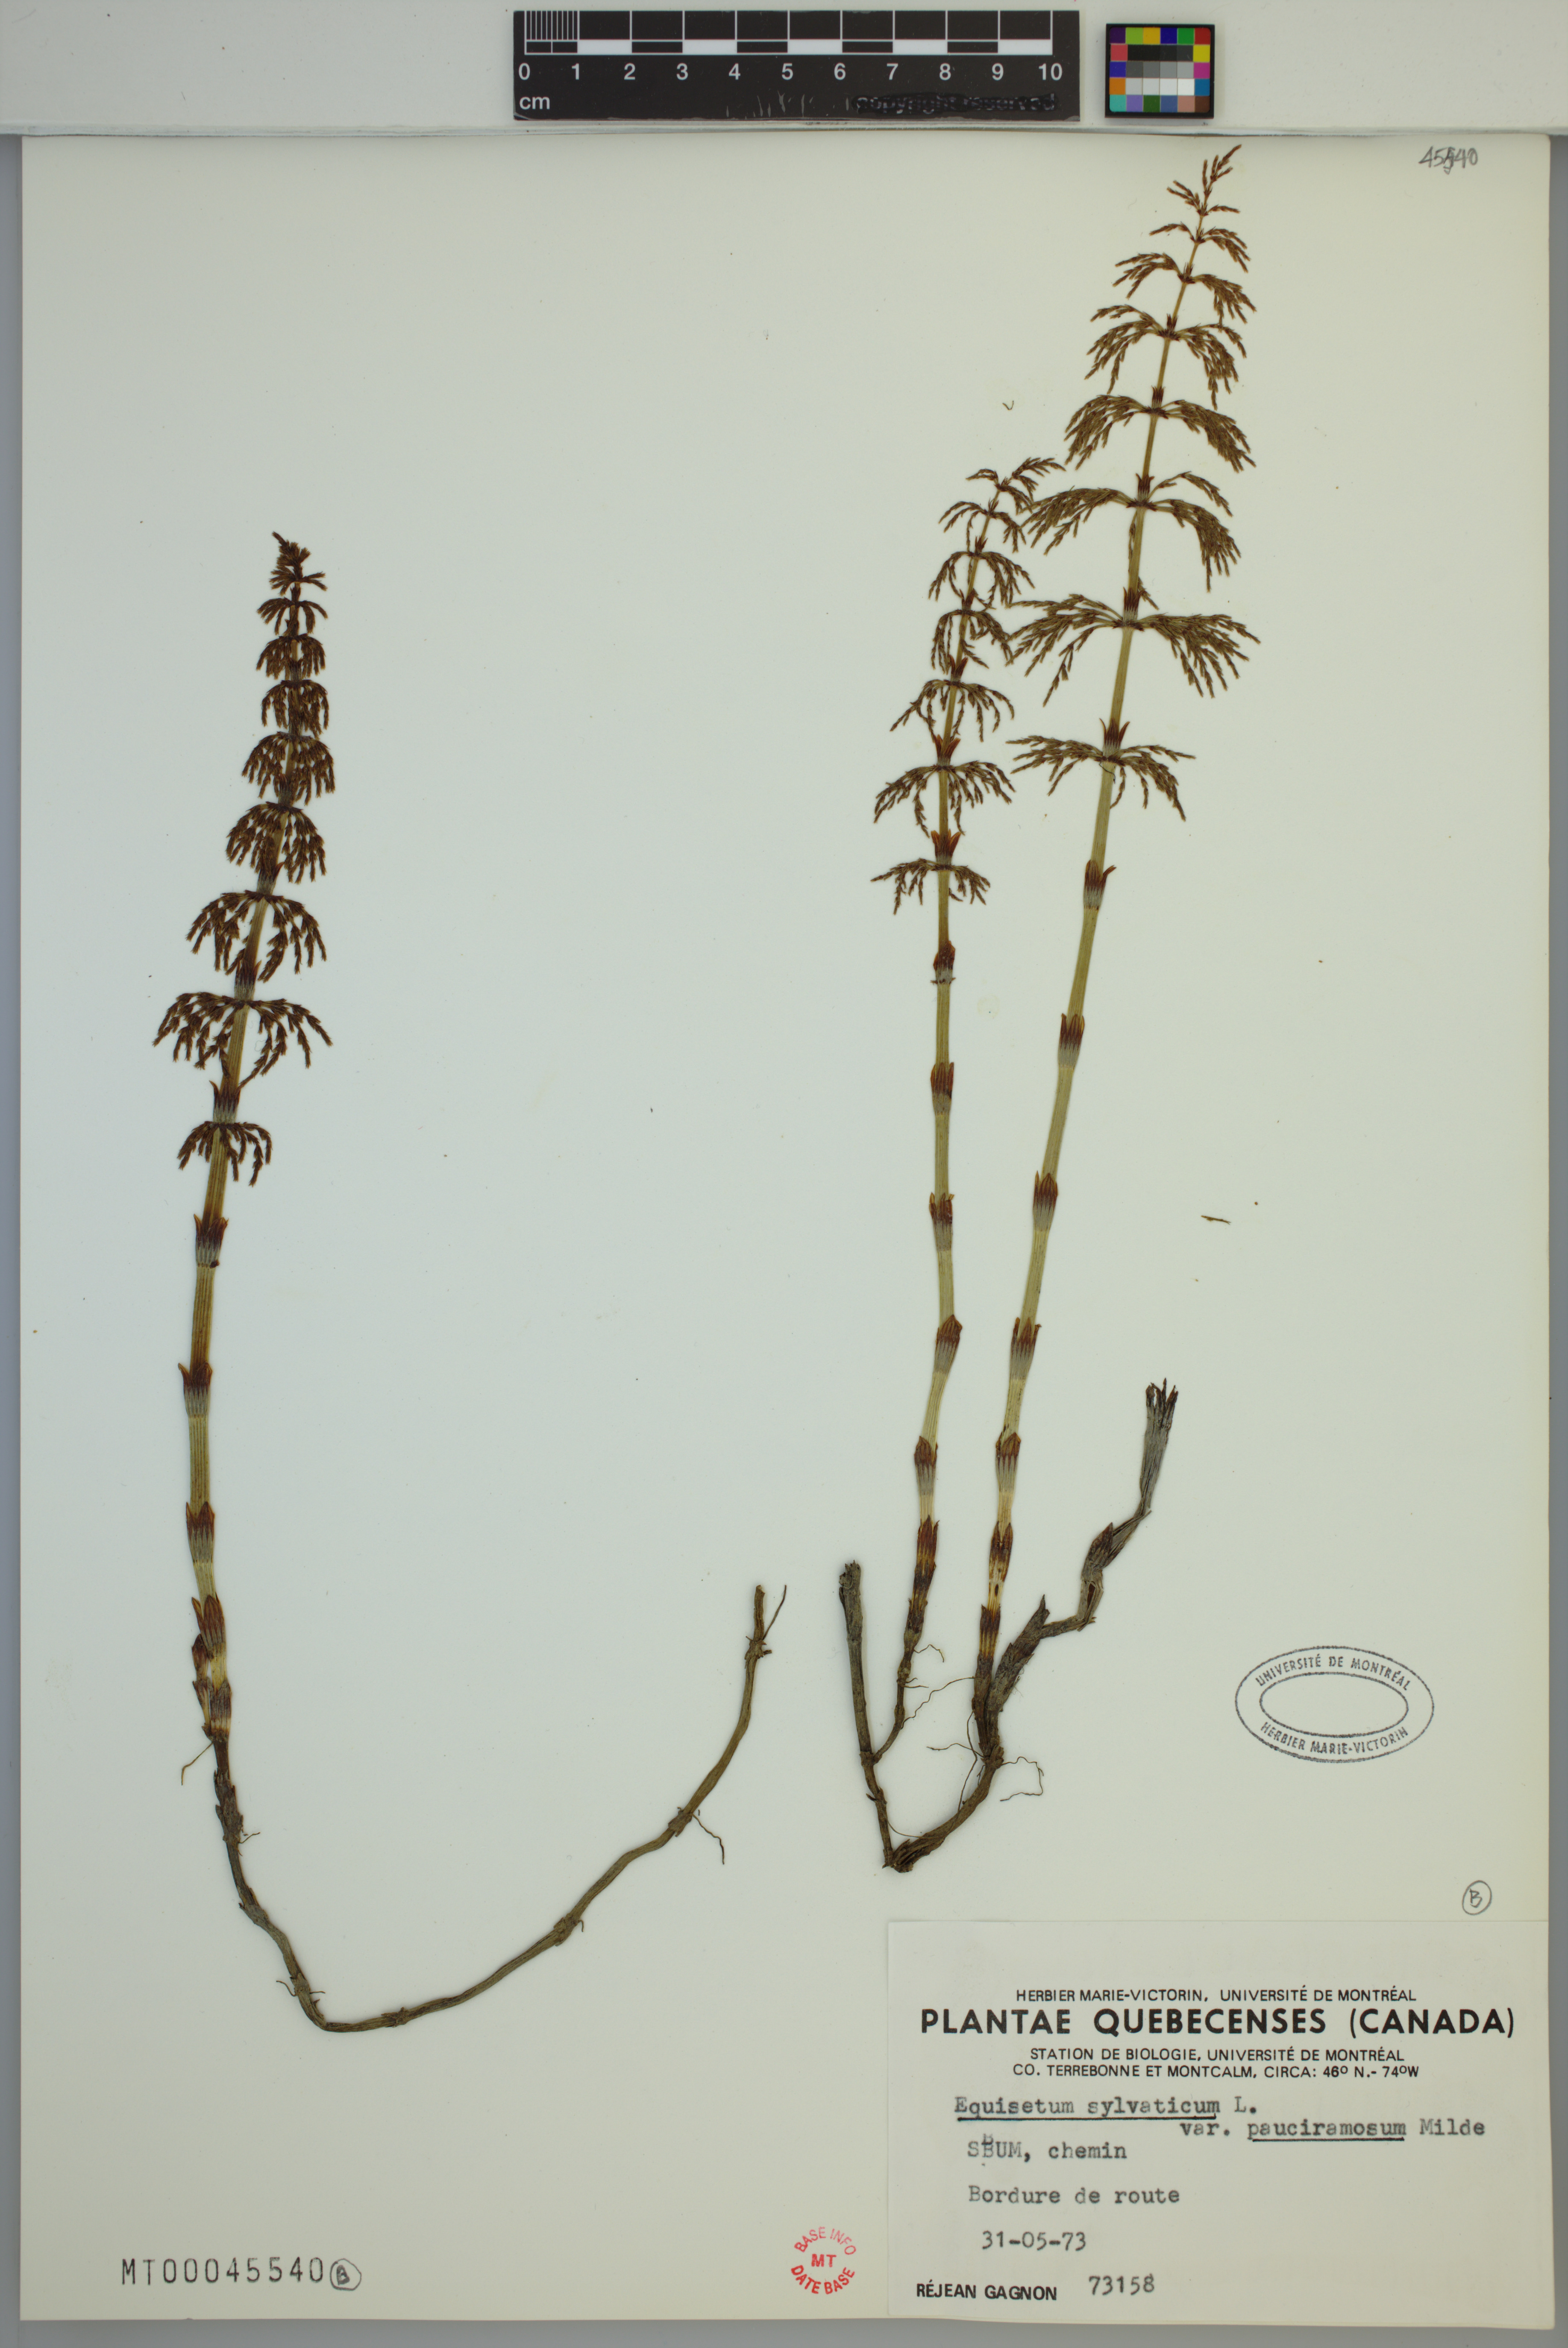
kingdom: Plantae
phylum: Tracheophyta
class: Polypodiopsida
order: Equisetales
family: Equisetaceae
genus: Equisetum
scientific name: Equisetum sylvaticum
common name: Wood horsetail
